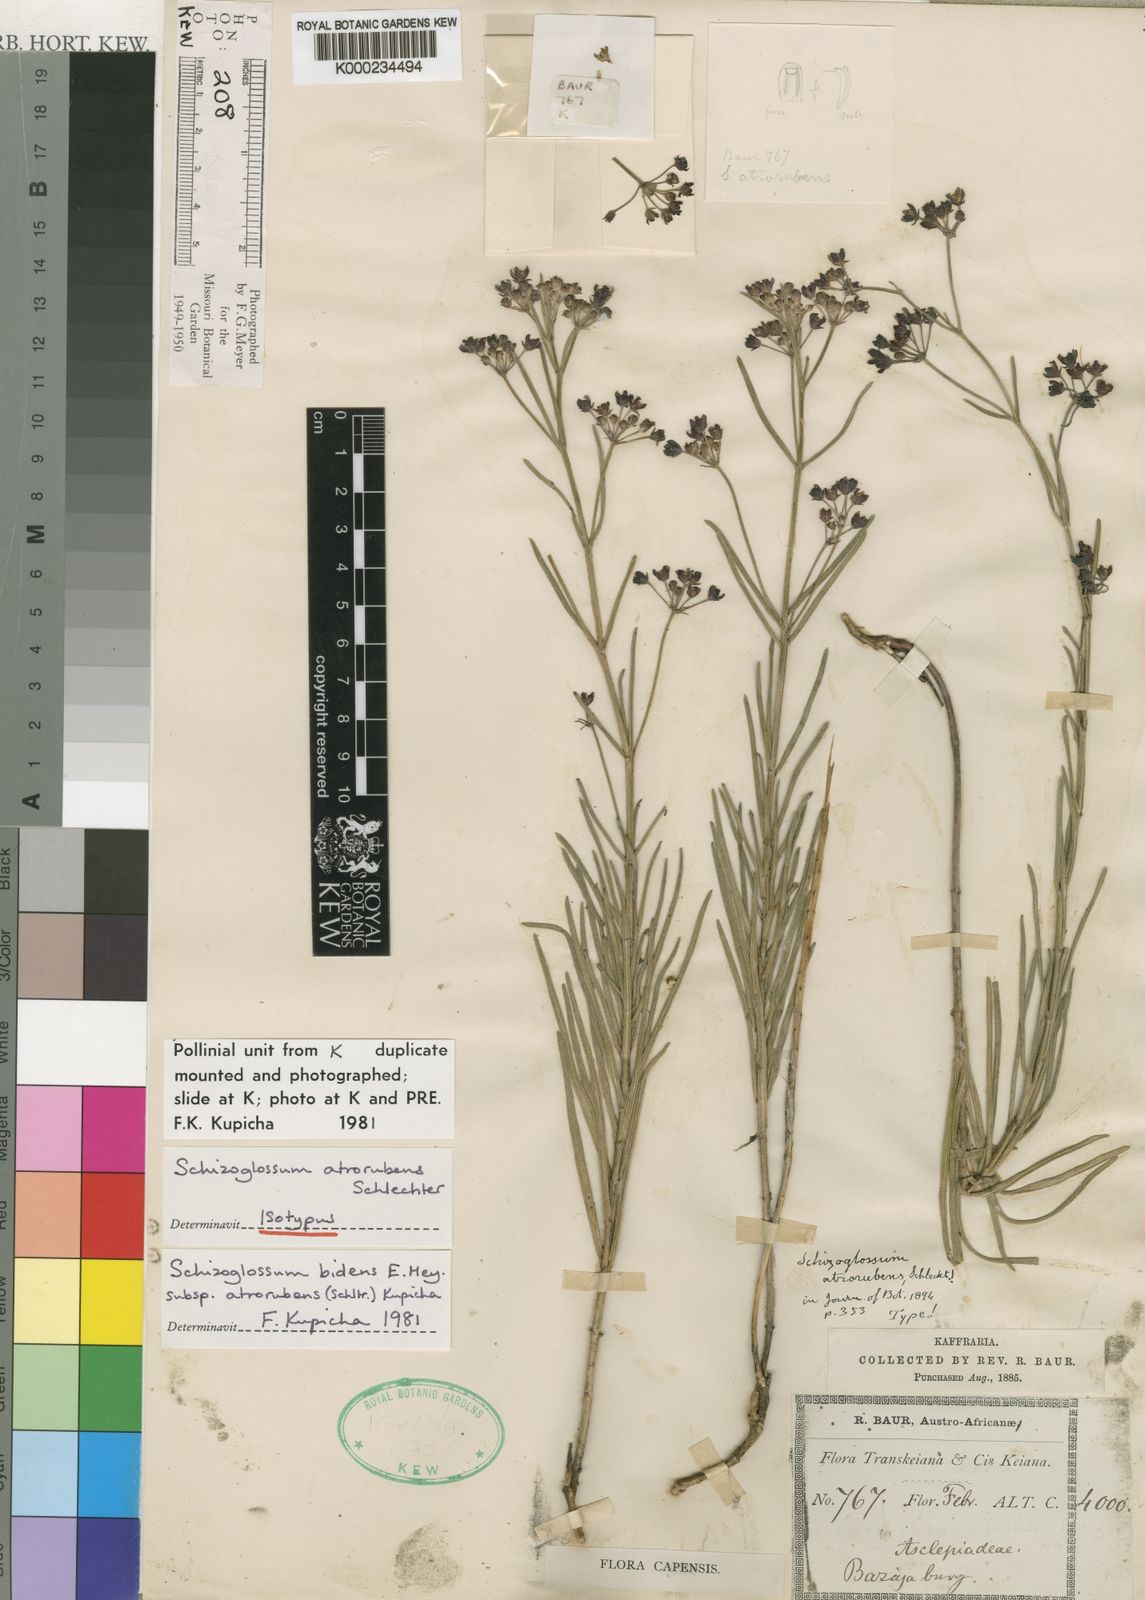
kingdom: Plantae
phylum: Tracheophyta
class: Magnoliopsida
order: Gentianales
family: Apocynaceae
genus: Schizoglossum
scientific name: Schizoglossum bidens
